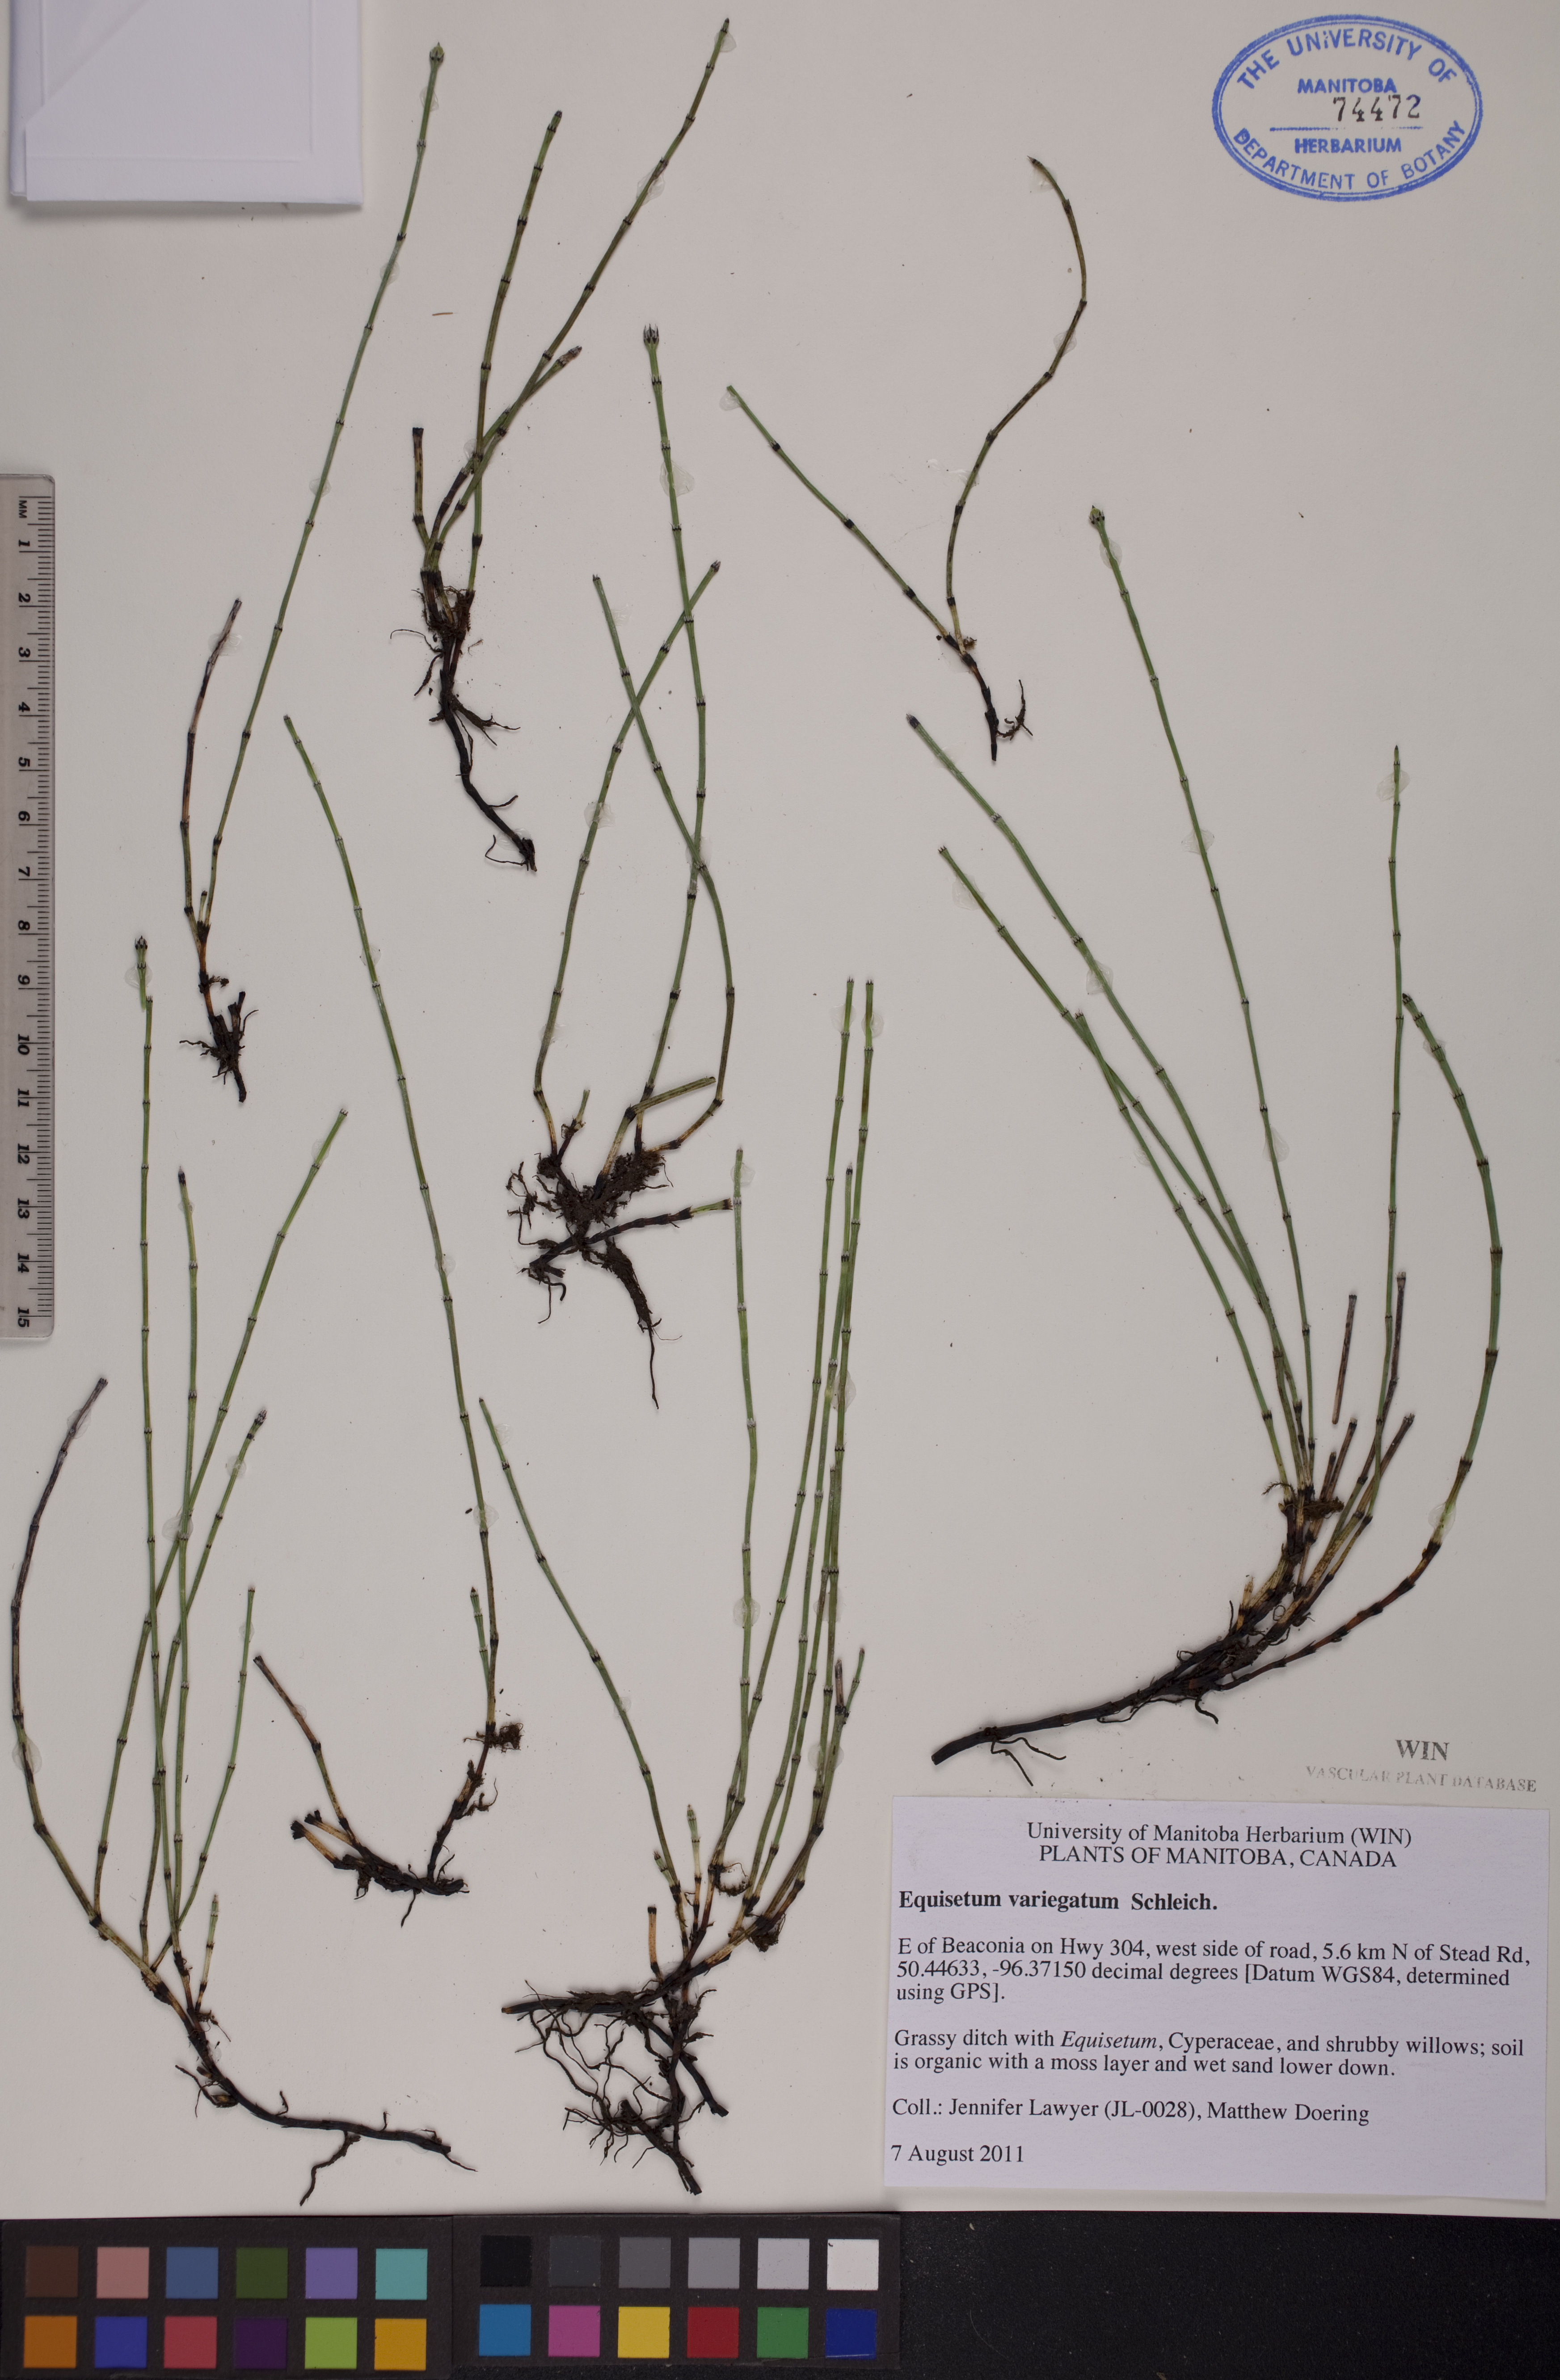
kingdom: Plantae
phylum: Tracheophyta
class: Polypodiopsida
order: Equisetales
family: Equisetaceae
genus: Equisetum
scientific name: Equisetum variegatum
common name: Variegated horsetail
